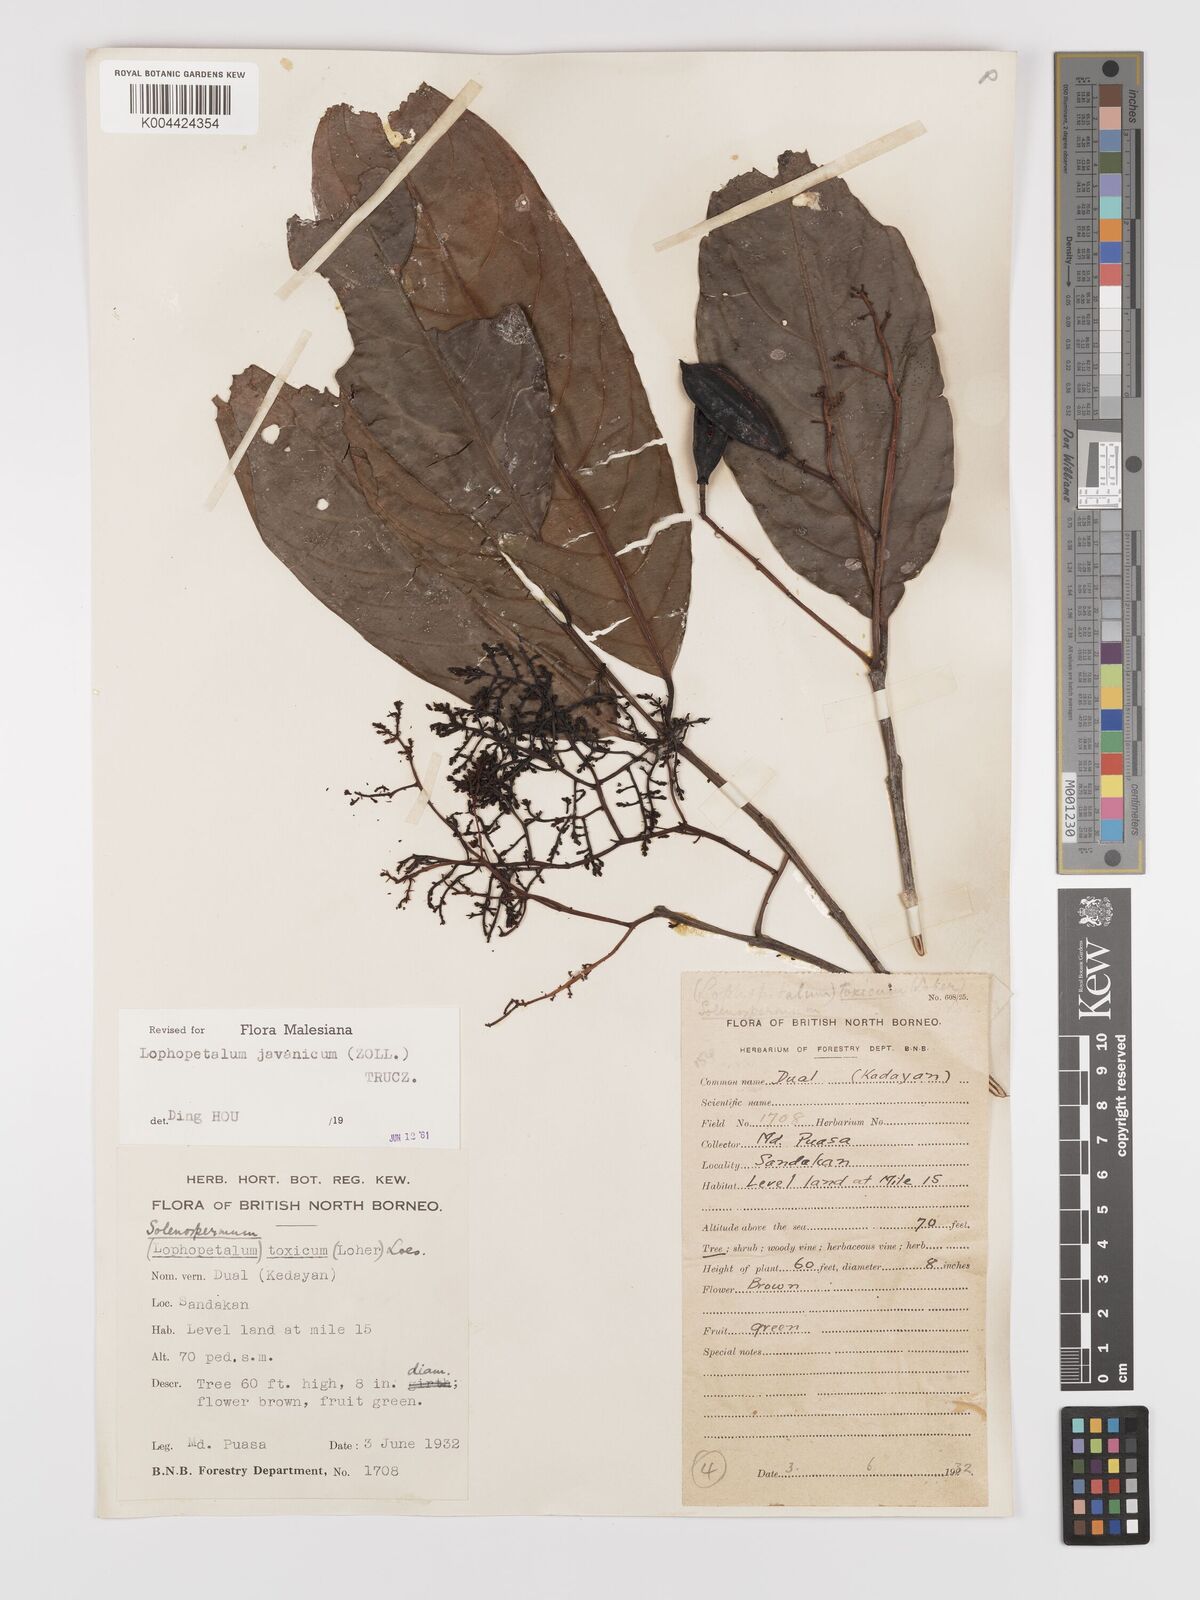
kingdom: Plantae
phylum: Tracheophyta
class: Magnoliopsida
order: Celastrales
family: Celastraceae
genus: Lophopetalum
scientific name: Lophopetalum javanicum
